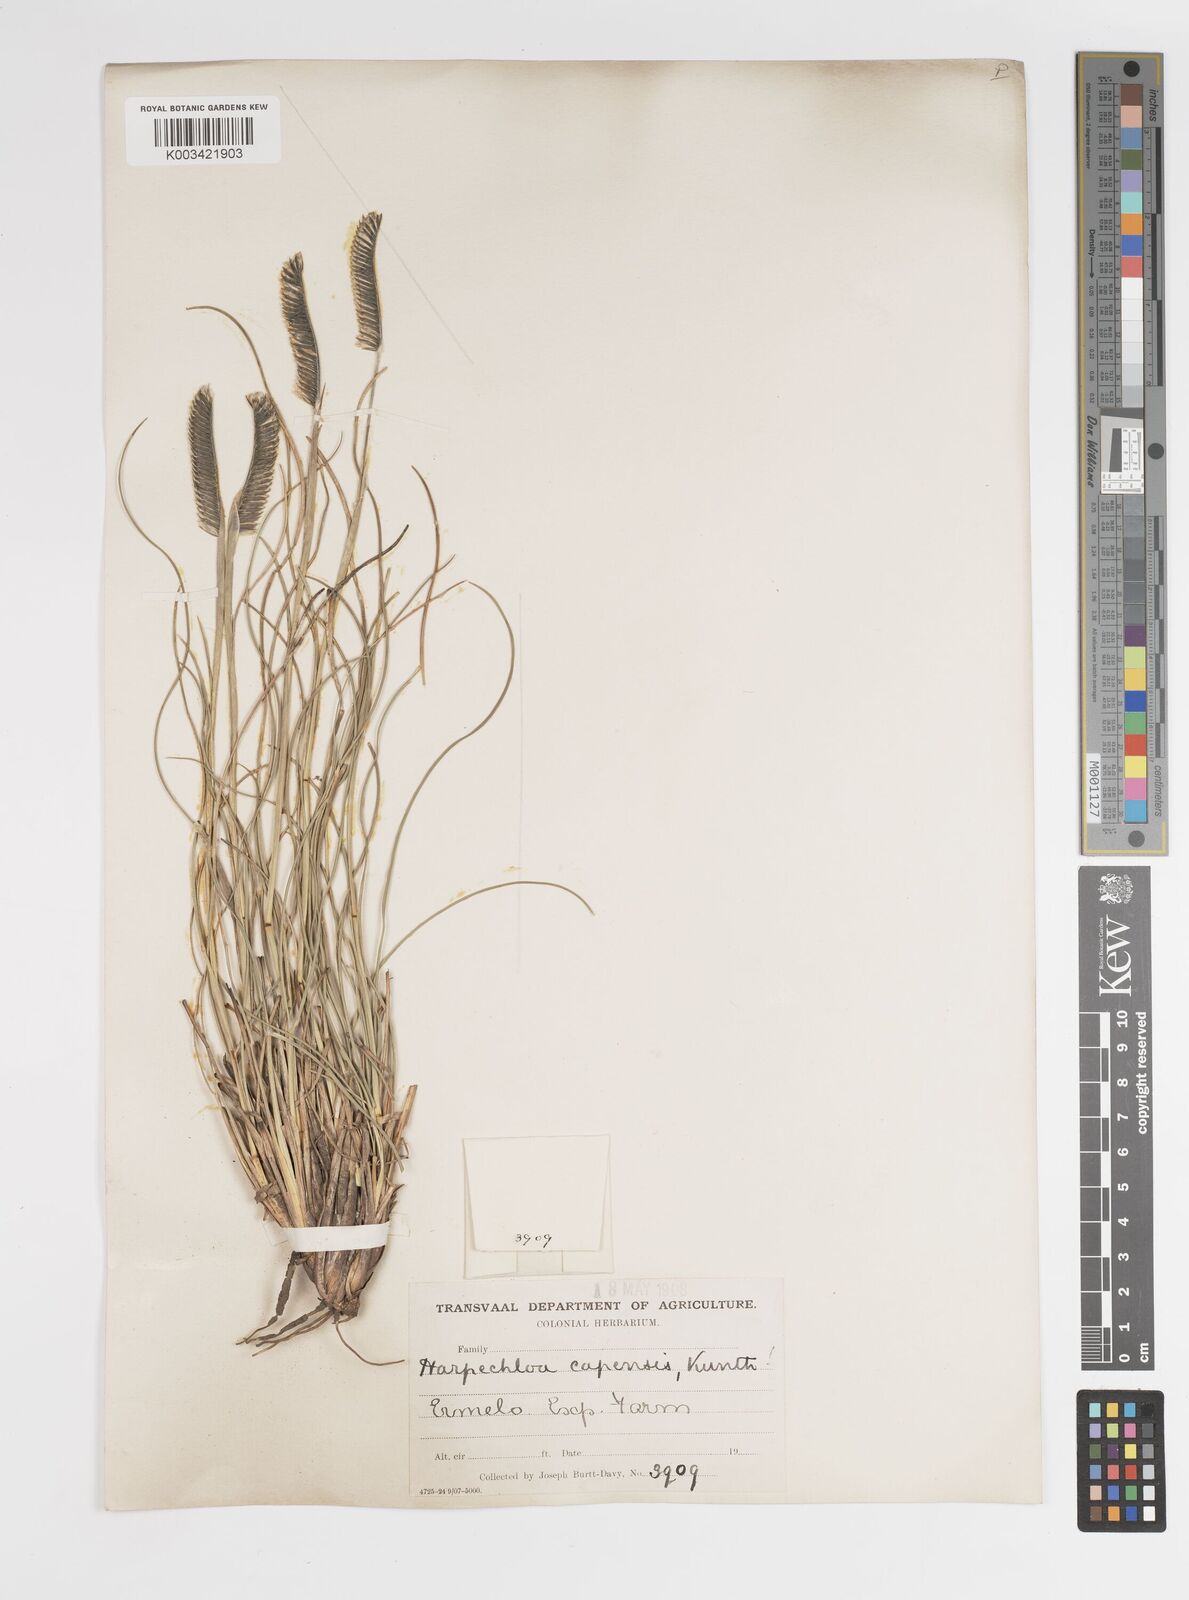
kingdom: Plantae
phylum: Tracheophyta
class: Liliopsida
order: Poales
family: Poaceae
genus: Harpochloa
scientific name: Harpochloa falx
